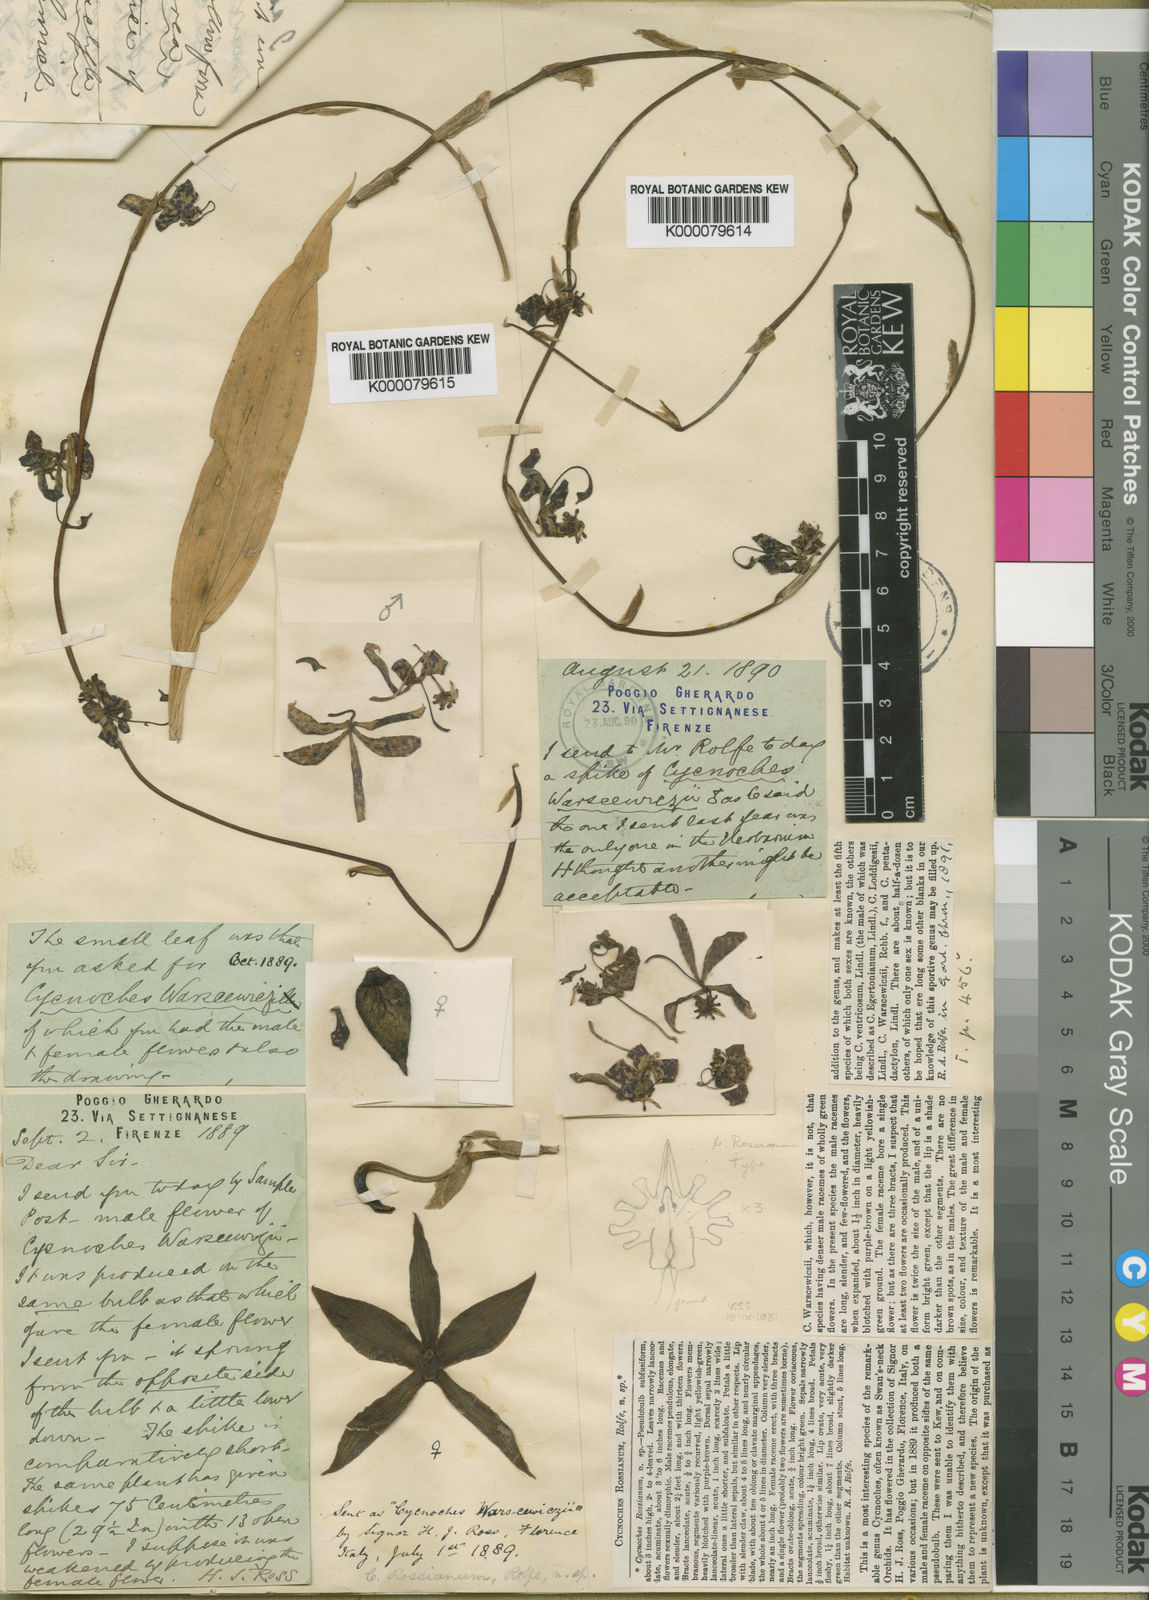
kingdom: Plantae
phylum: Tracheophyta
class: Liliopsida
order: Asparagales
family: Orchidaceae
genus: Cycnoches
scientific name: Cycnoches egertonianum
